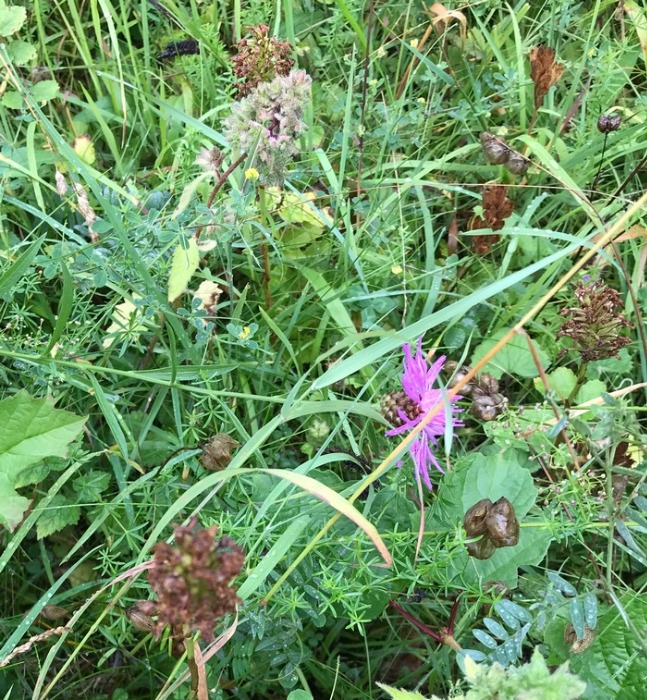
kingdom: Plantae
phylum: Tracheophyta
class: Liliopsida
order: Asparagales
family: Orchidaceae
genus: Anacamptis
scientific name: Anacamptis pyramidalis
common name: Horndrager
